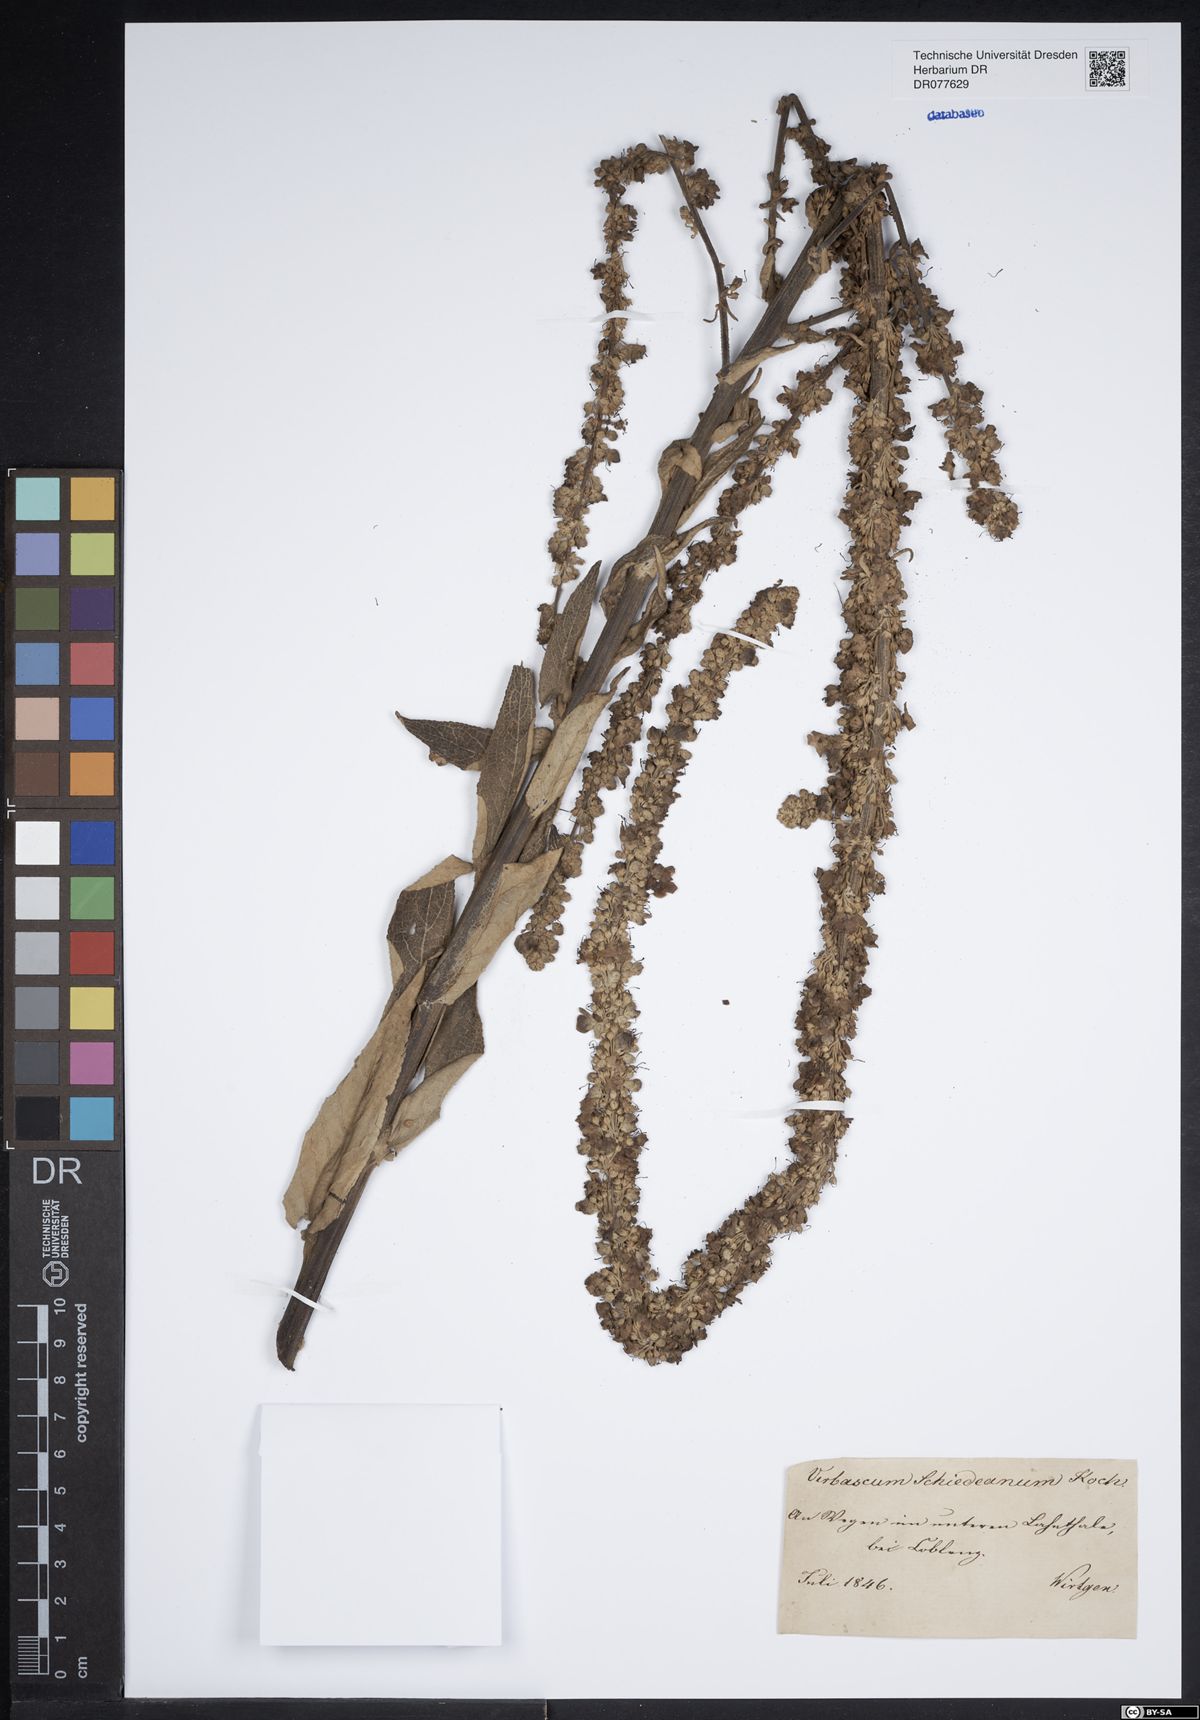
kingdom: Plantae
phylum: Tracheophyta
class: Magnoliopsida
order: Lamiales
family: Scrophulariaceae
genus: Verbascum
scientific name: Verbascum biebersteinii
